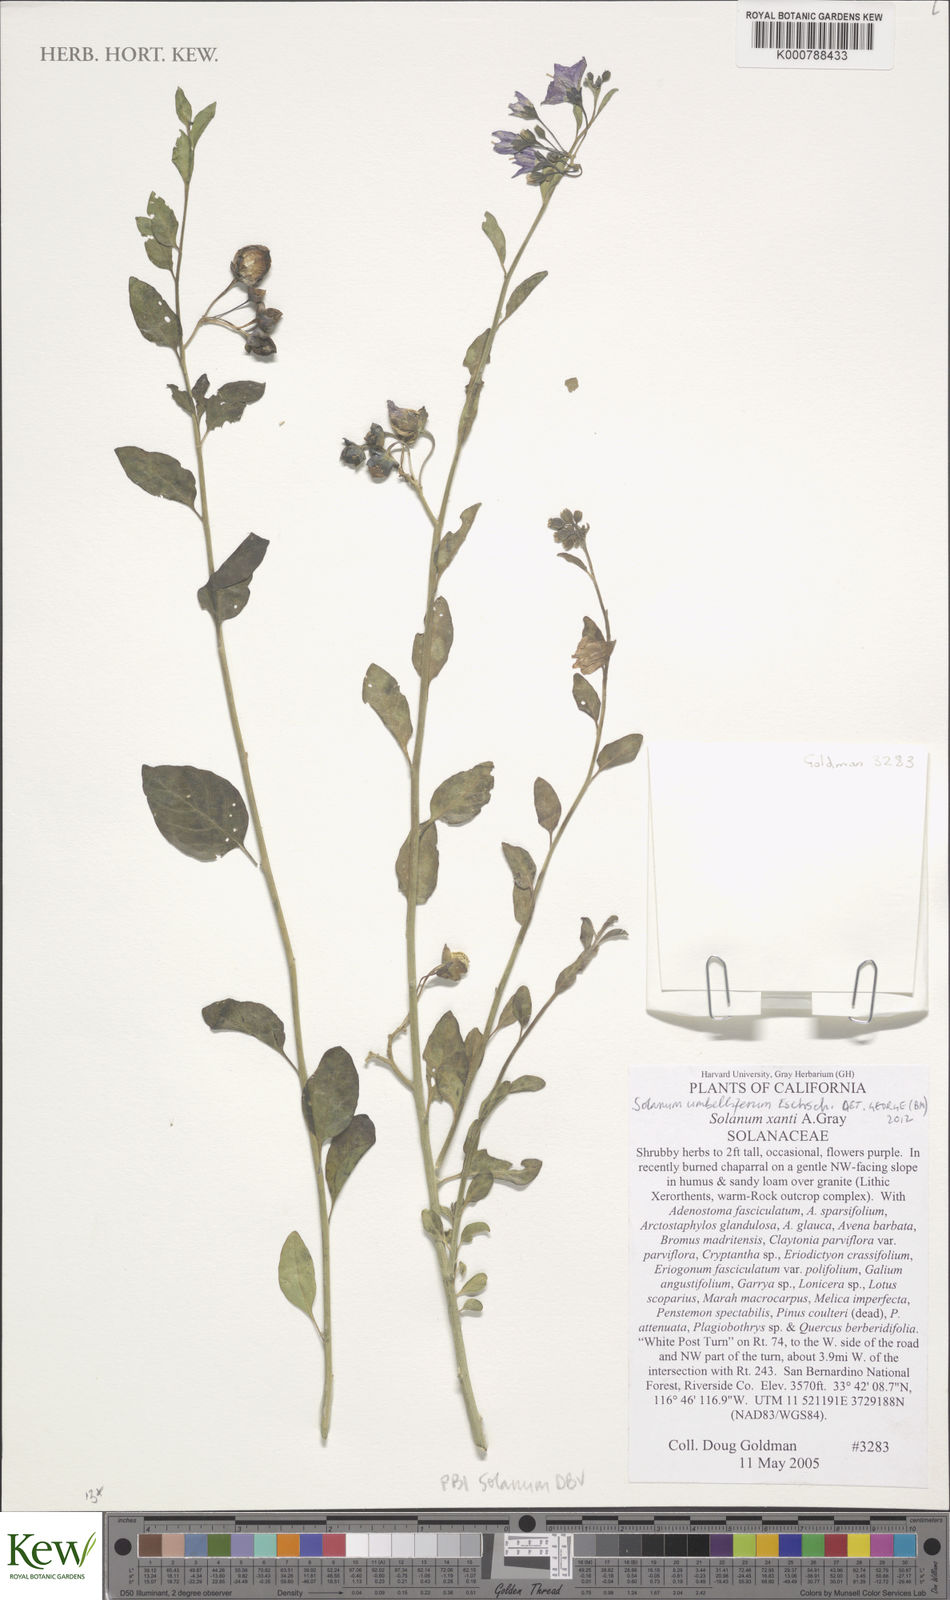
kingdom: Plantae
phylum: Tracheophyta
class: Magnoliopsida
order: Solanales
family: Solanaceae
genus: Solanum
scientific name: Solanum umbelliferum
